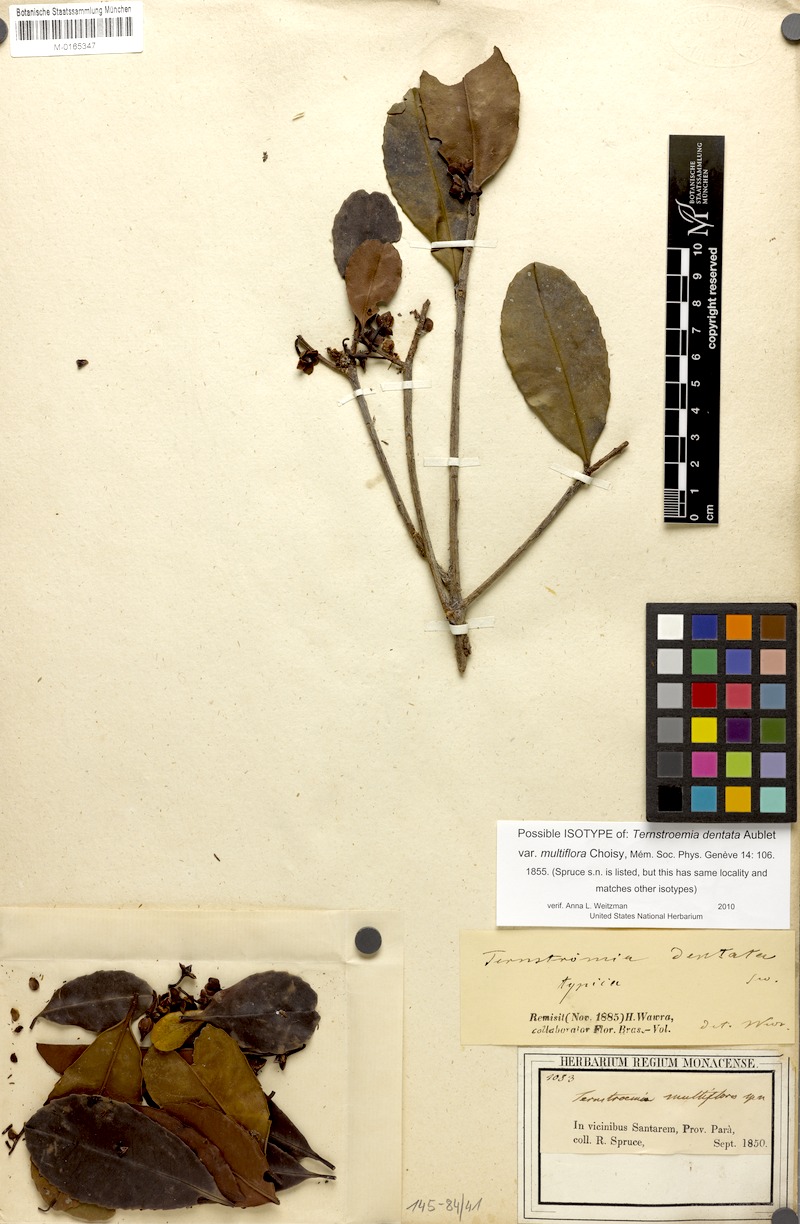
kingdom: Plantae
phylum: Tracheophyta
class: Magnoliopsida
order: Ericales
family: Pentaphylacaceae
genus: Ternstroemia
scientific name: Ternstroemia dentata
